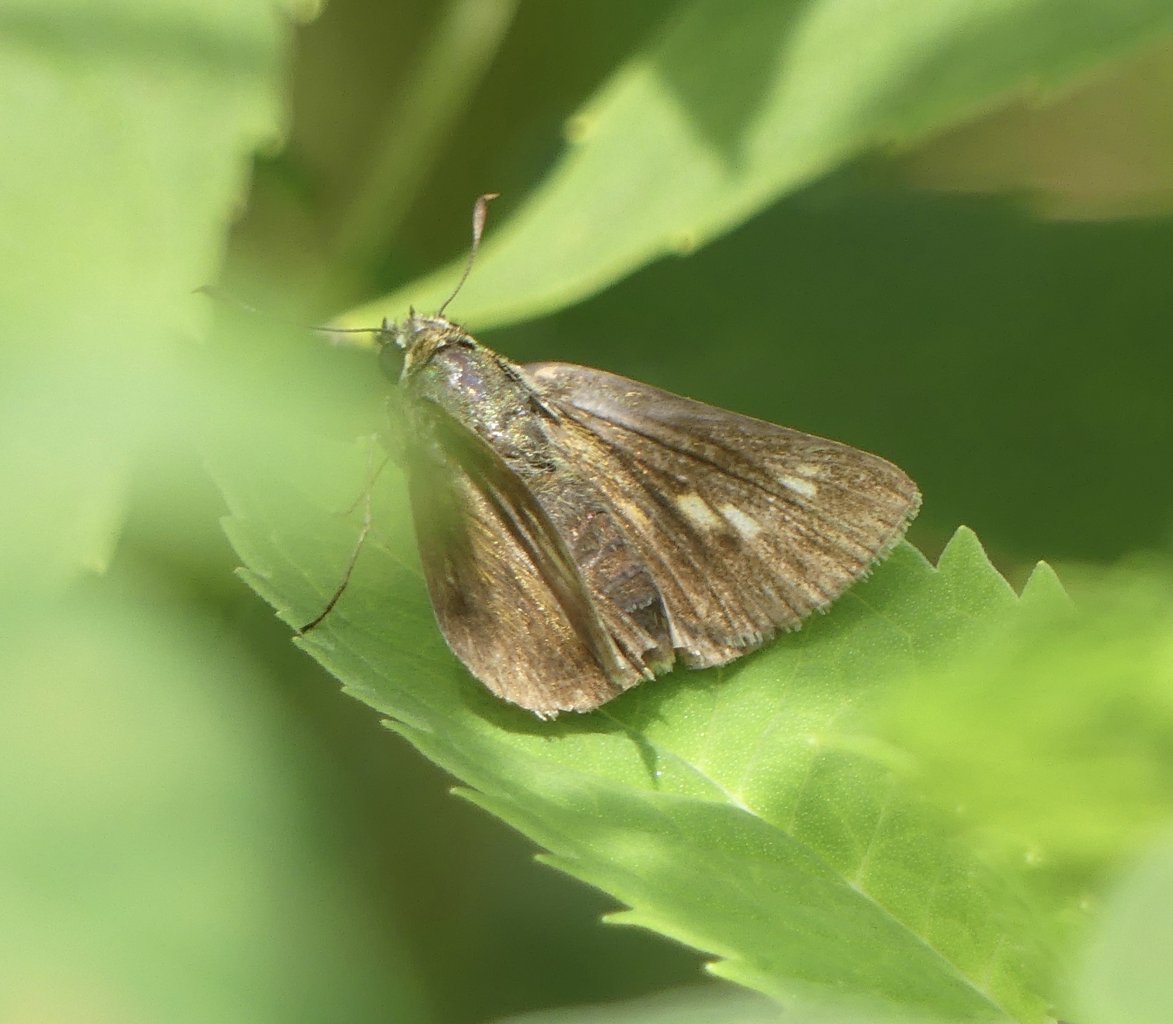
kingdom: Animalia
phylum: Arthropoda
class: Insecta
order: Lepidoptera
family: Hesperiidae
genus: Polites
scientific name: Polites egeremet
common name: Northern Broken-Dash
